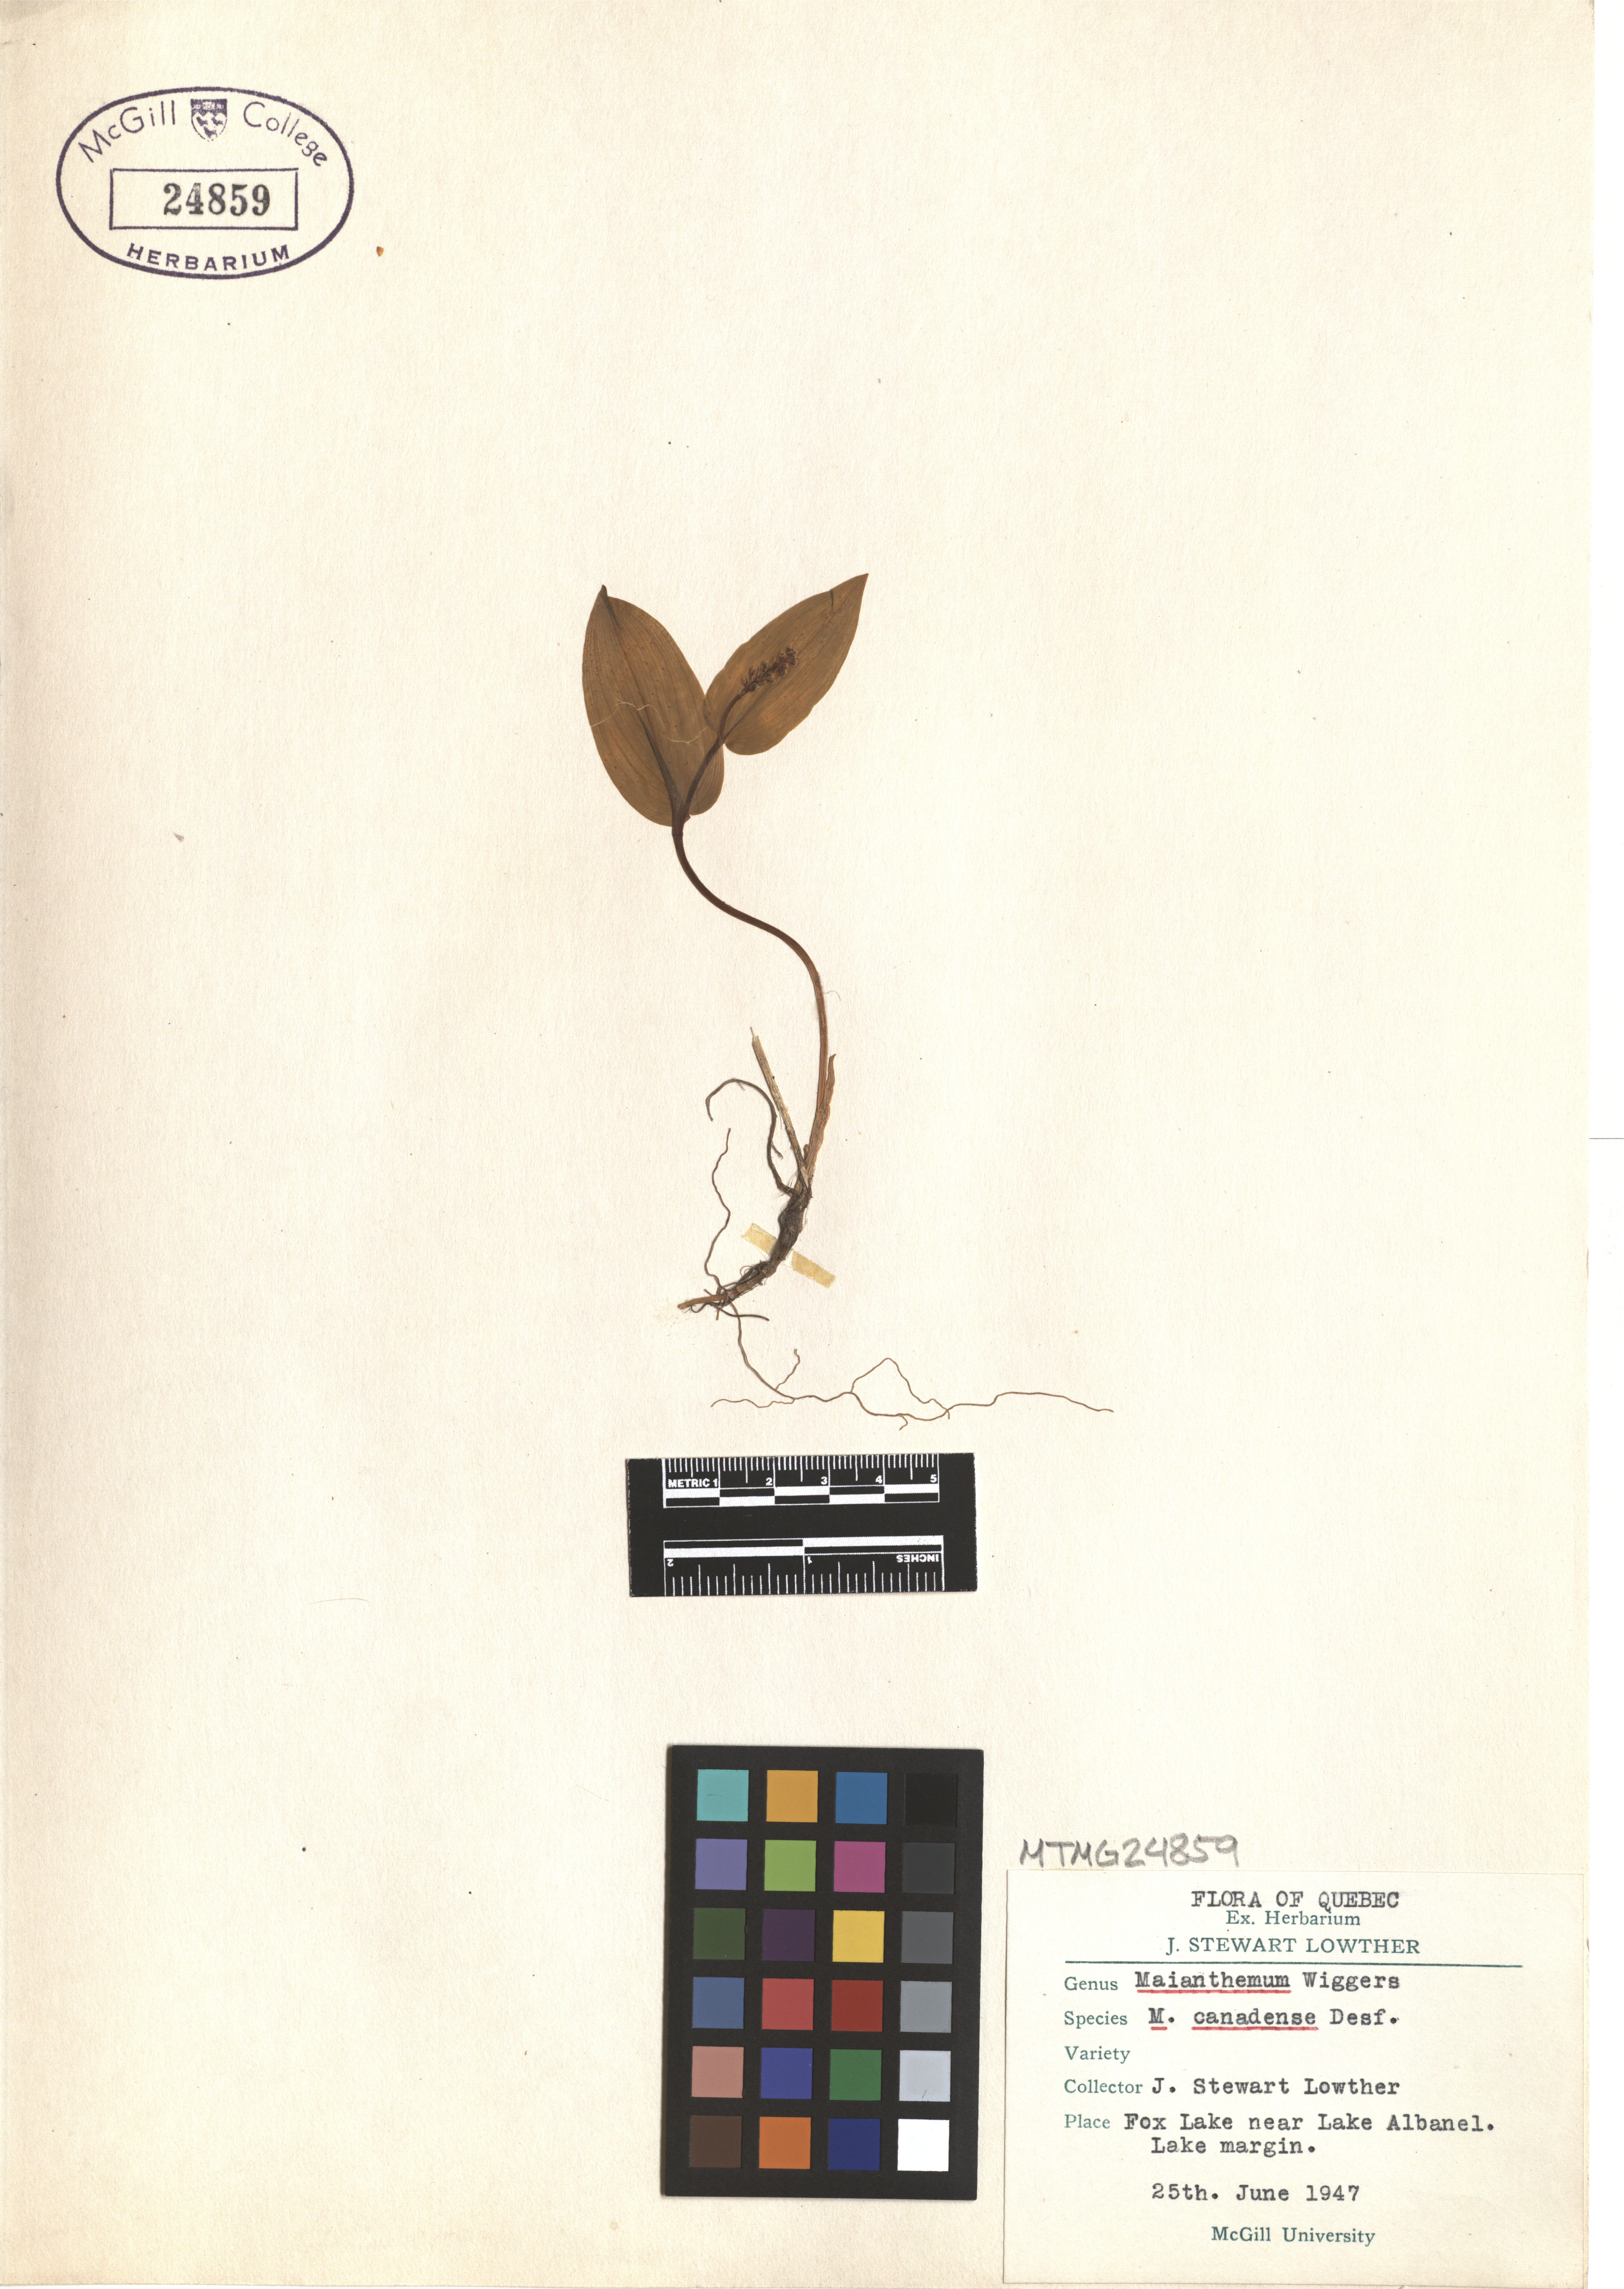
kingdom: Plantae
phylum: Tracheophyta
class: Liliopsida
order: Asparagales
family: Asparagaceae
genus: Maianthemum
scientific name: Maianthemum canadense
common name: False lily-of-the-valley
